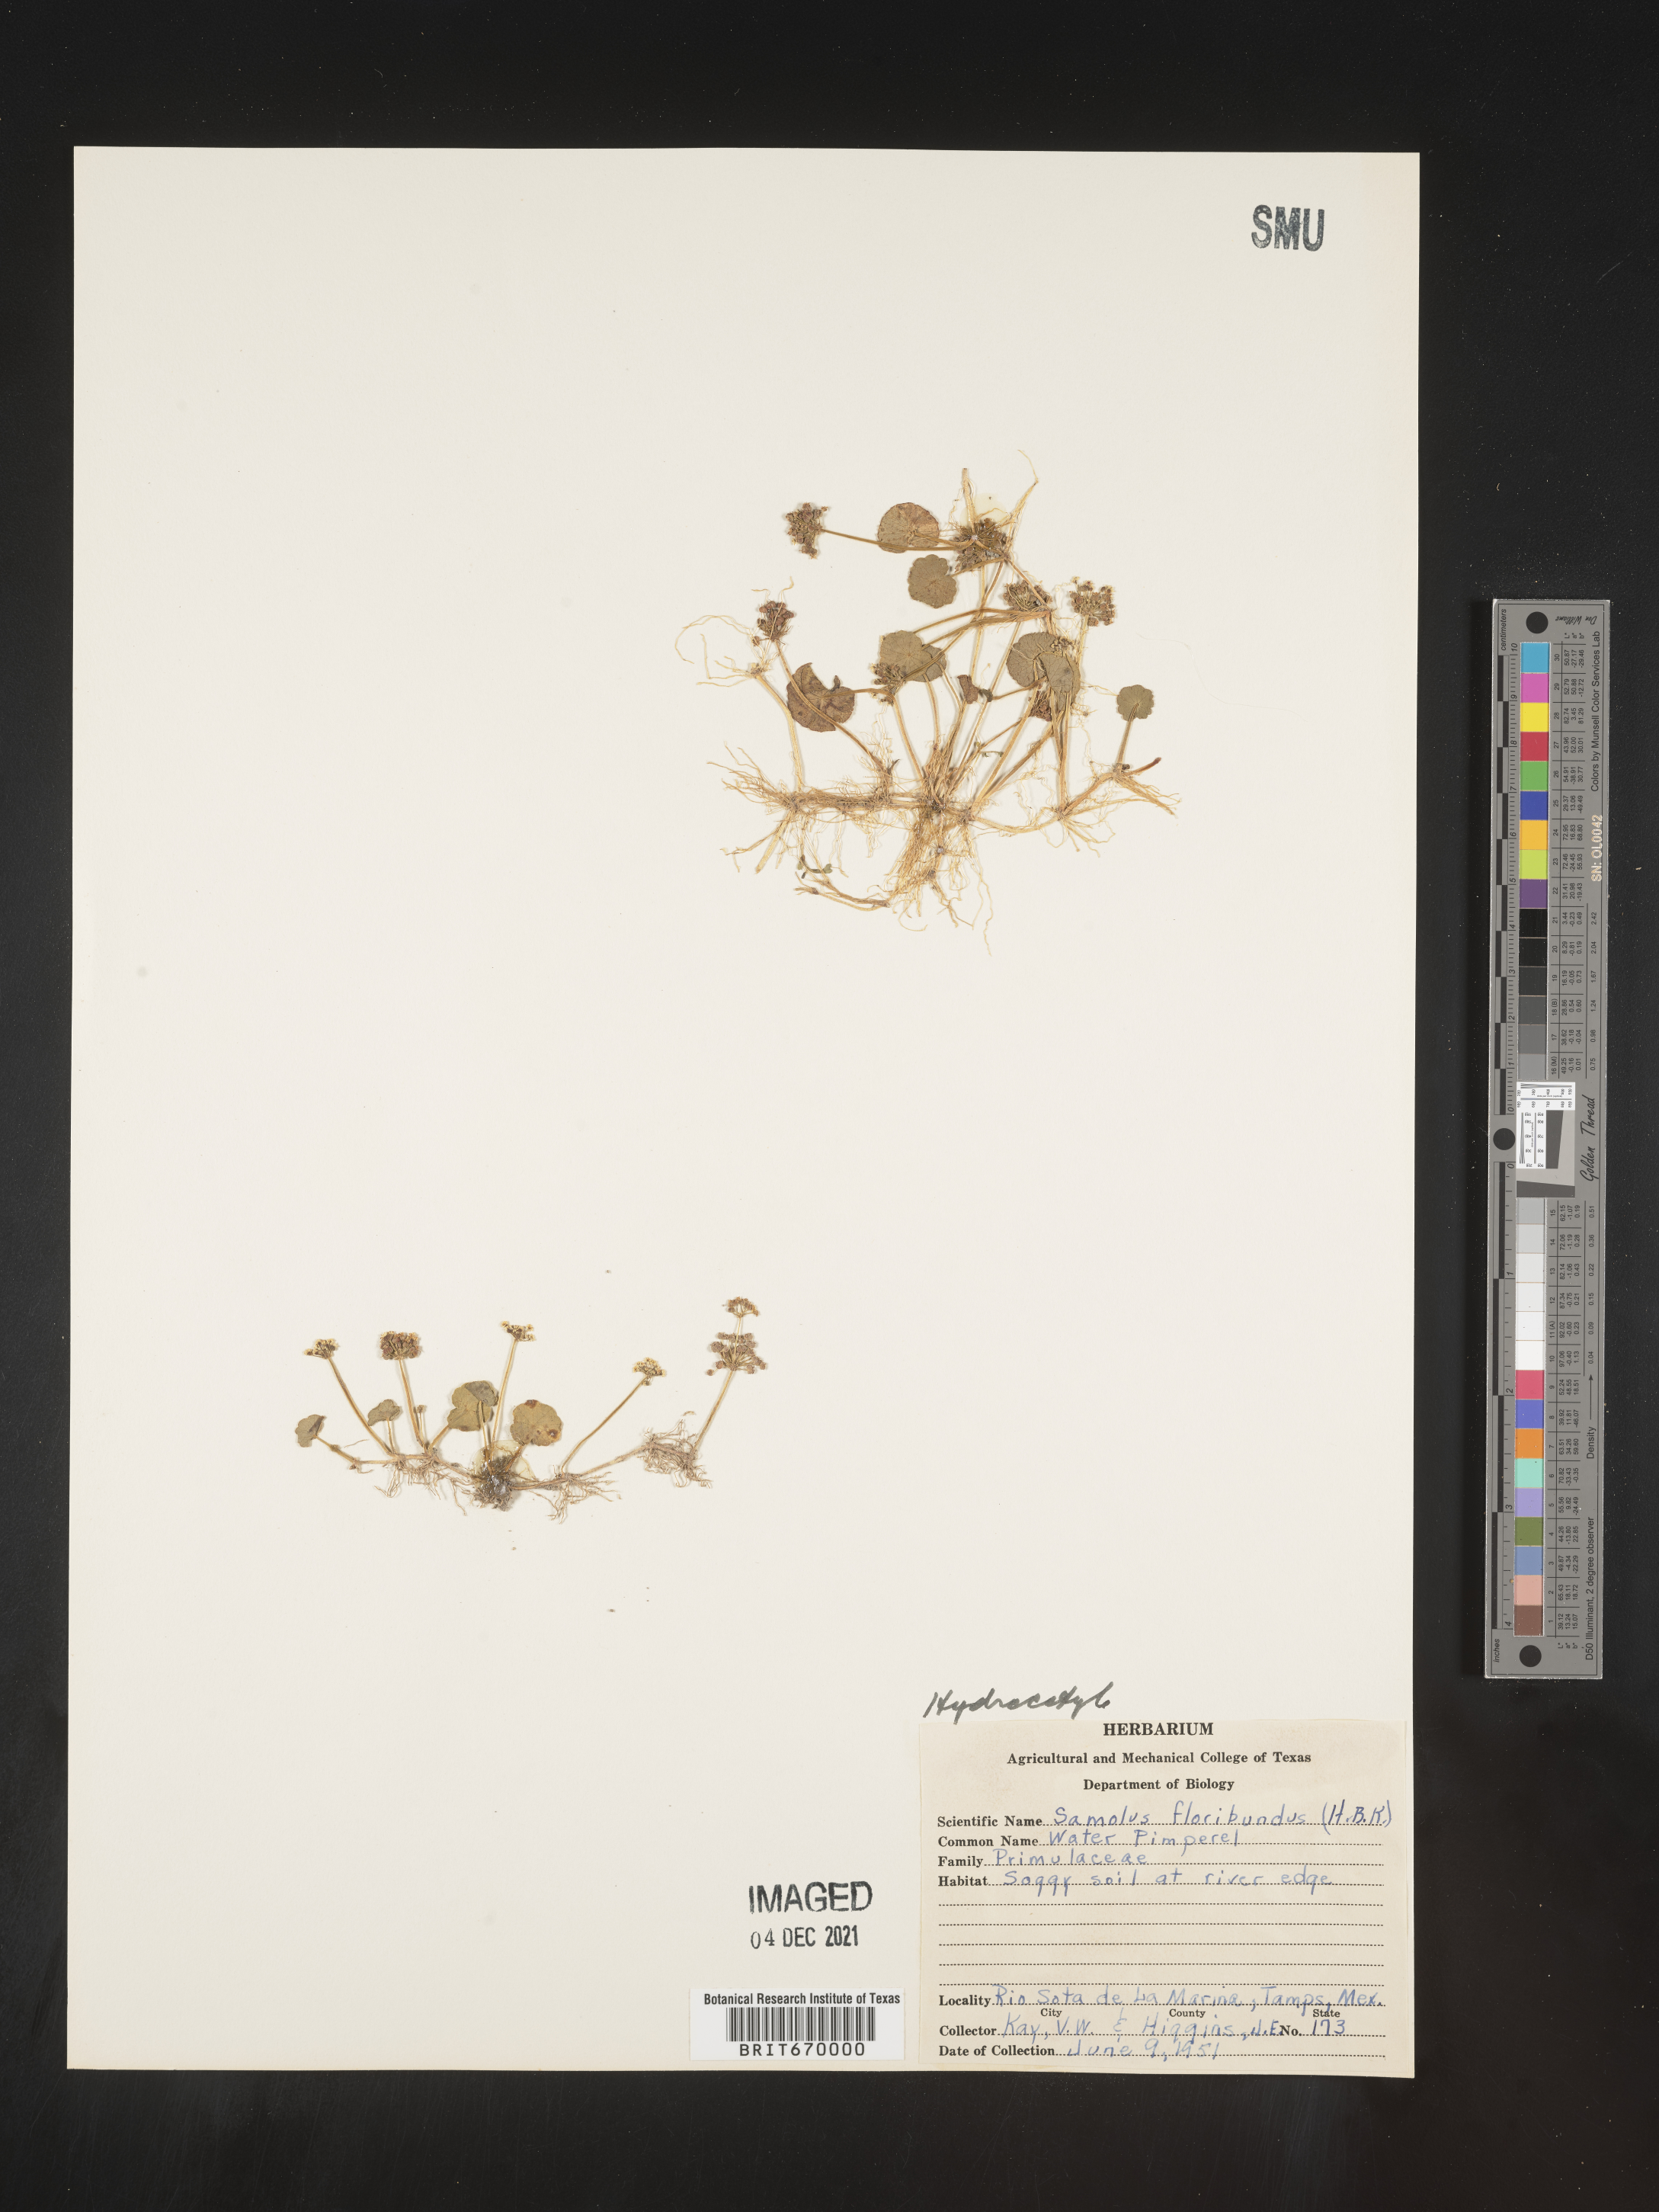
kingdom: Plantae
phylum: Tracheophyta
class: Magnoliopsida
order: Apiales
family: Araliaceae
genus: Hydrocotyle
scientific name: Hydrocotyle
